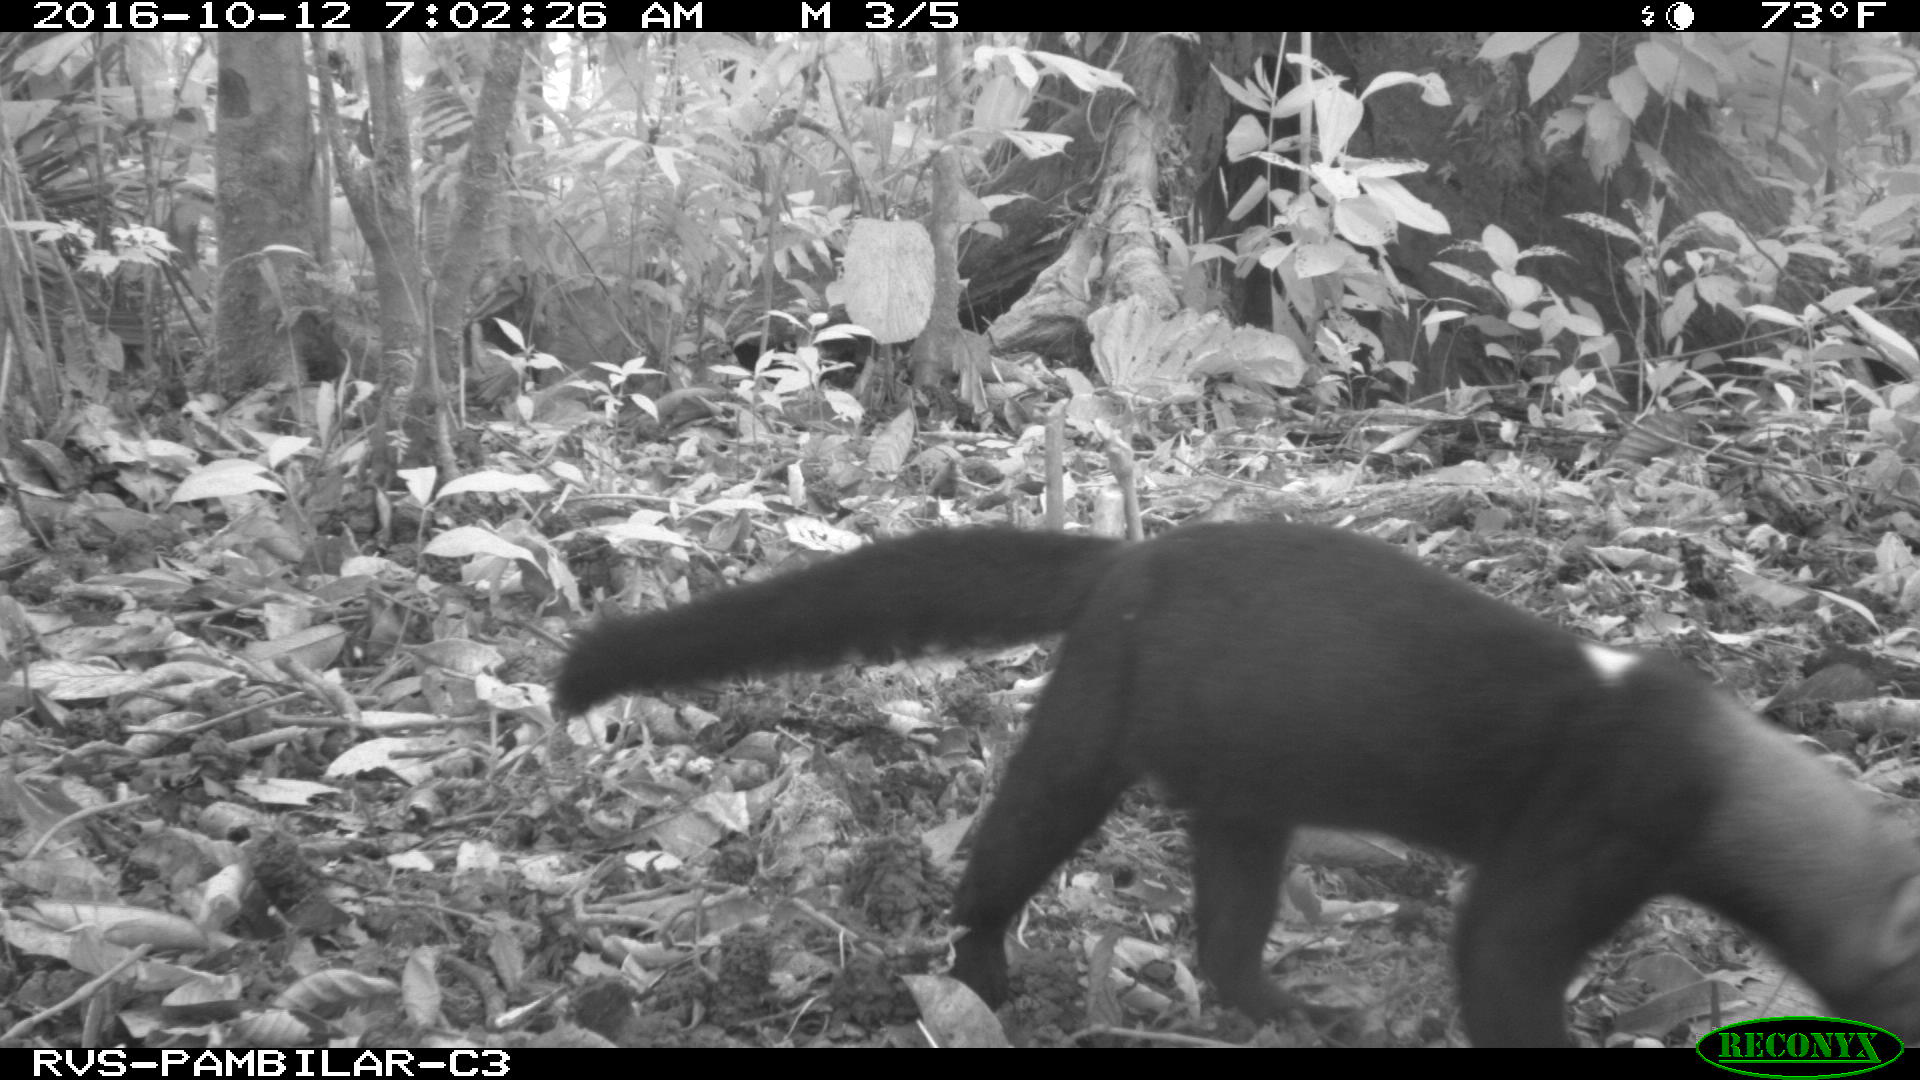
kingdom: Animalia
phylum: Chordata
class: Mammalia
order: Carnivora
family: Mustelidae
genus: Eira
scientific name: Eira barbara
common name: Tayra
